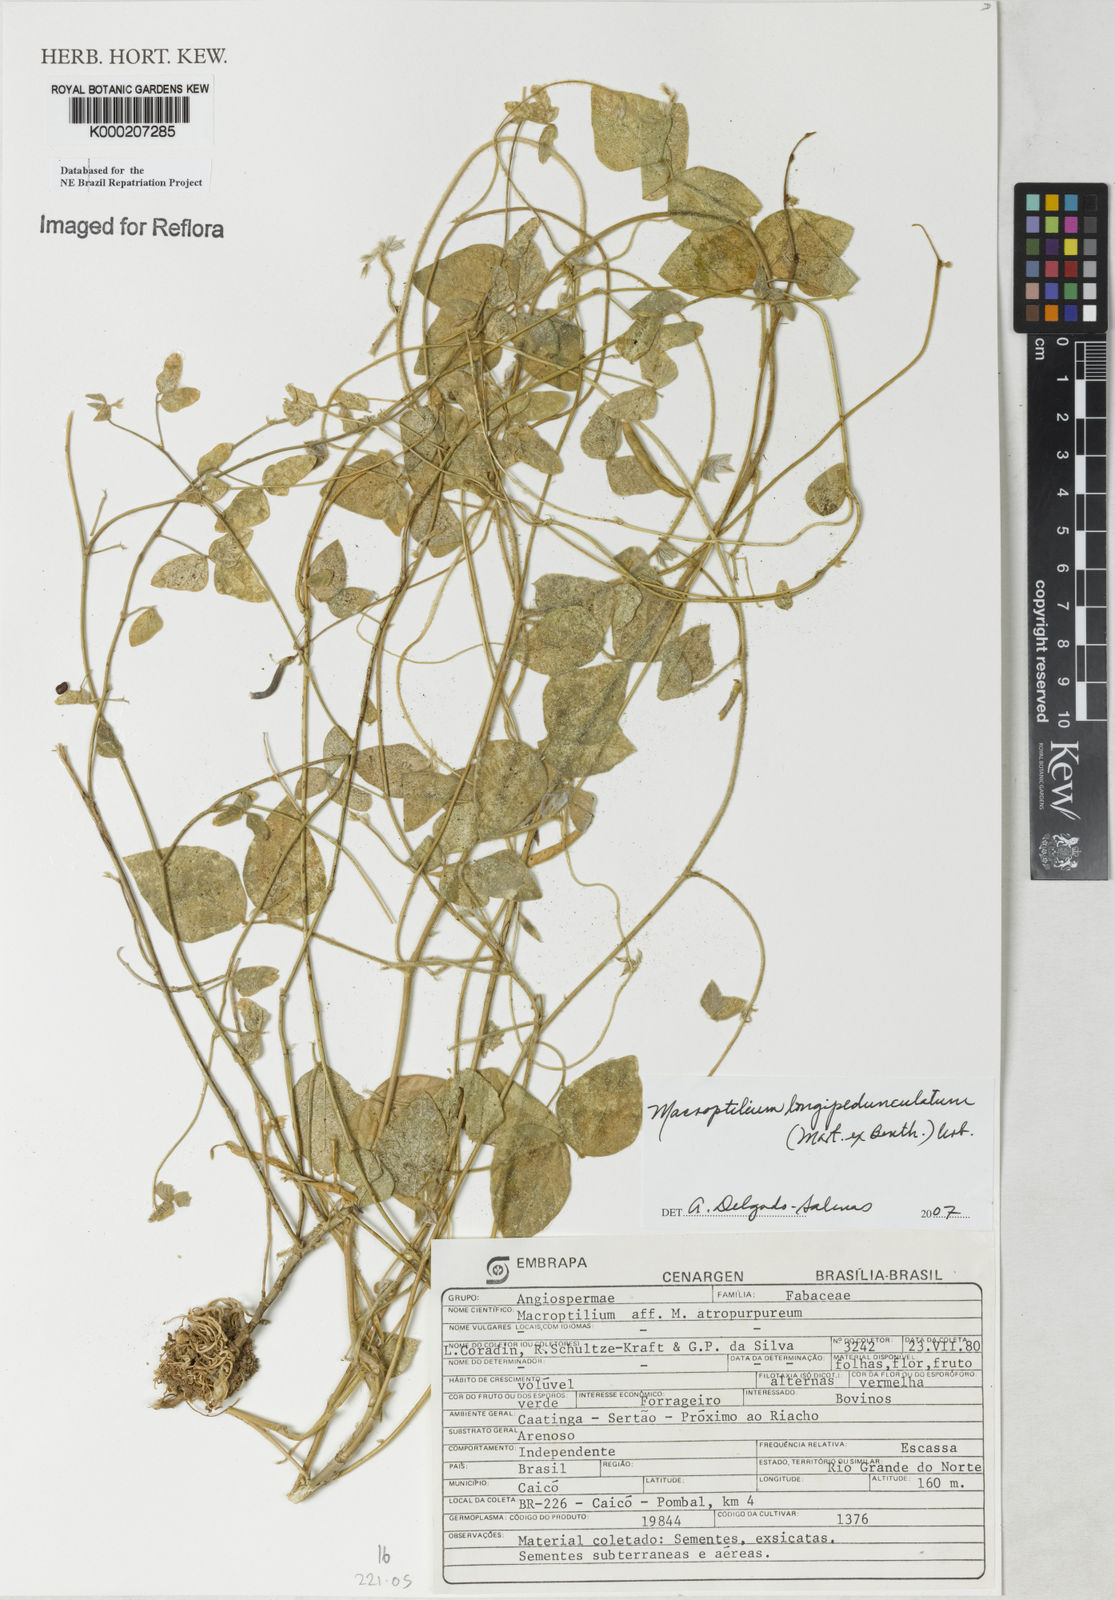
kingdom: Plantae
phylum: Tracheophyta
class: Magnoliopsida
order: Fabales
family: Fabaceae
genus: Macroptilium
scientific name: Macroptilium atropurpureum
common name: Purple bushbean
